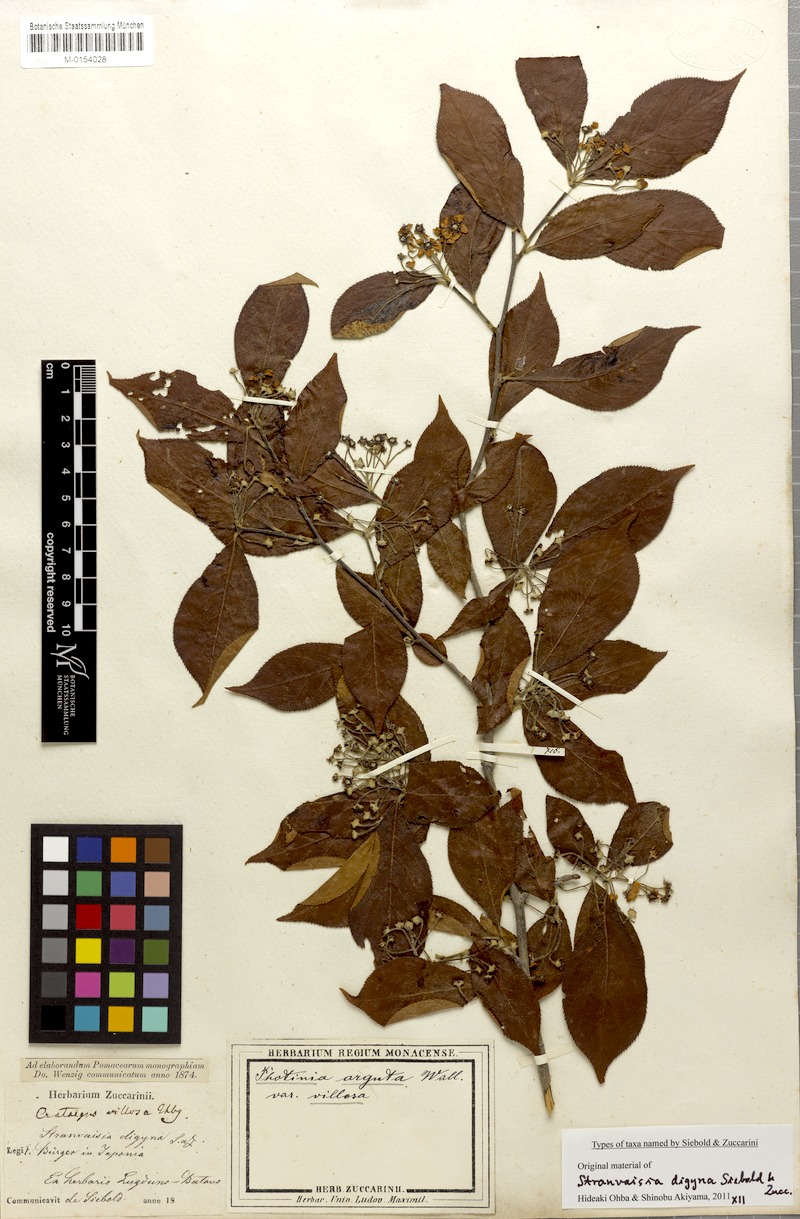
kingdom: Plantae
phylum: Tracheophyta
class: Magnoliopsida
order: Rosales
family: Rosaceae
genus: Pourthiaea
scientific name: Pourthiaea villosa
